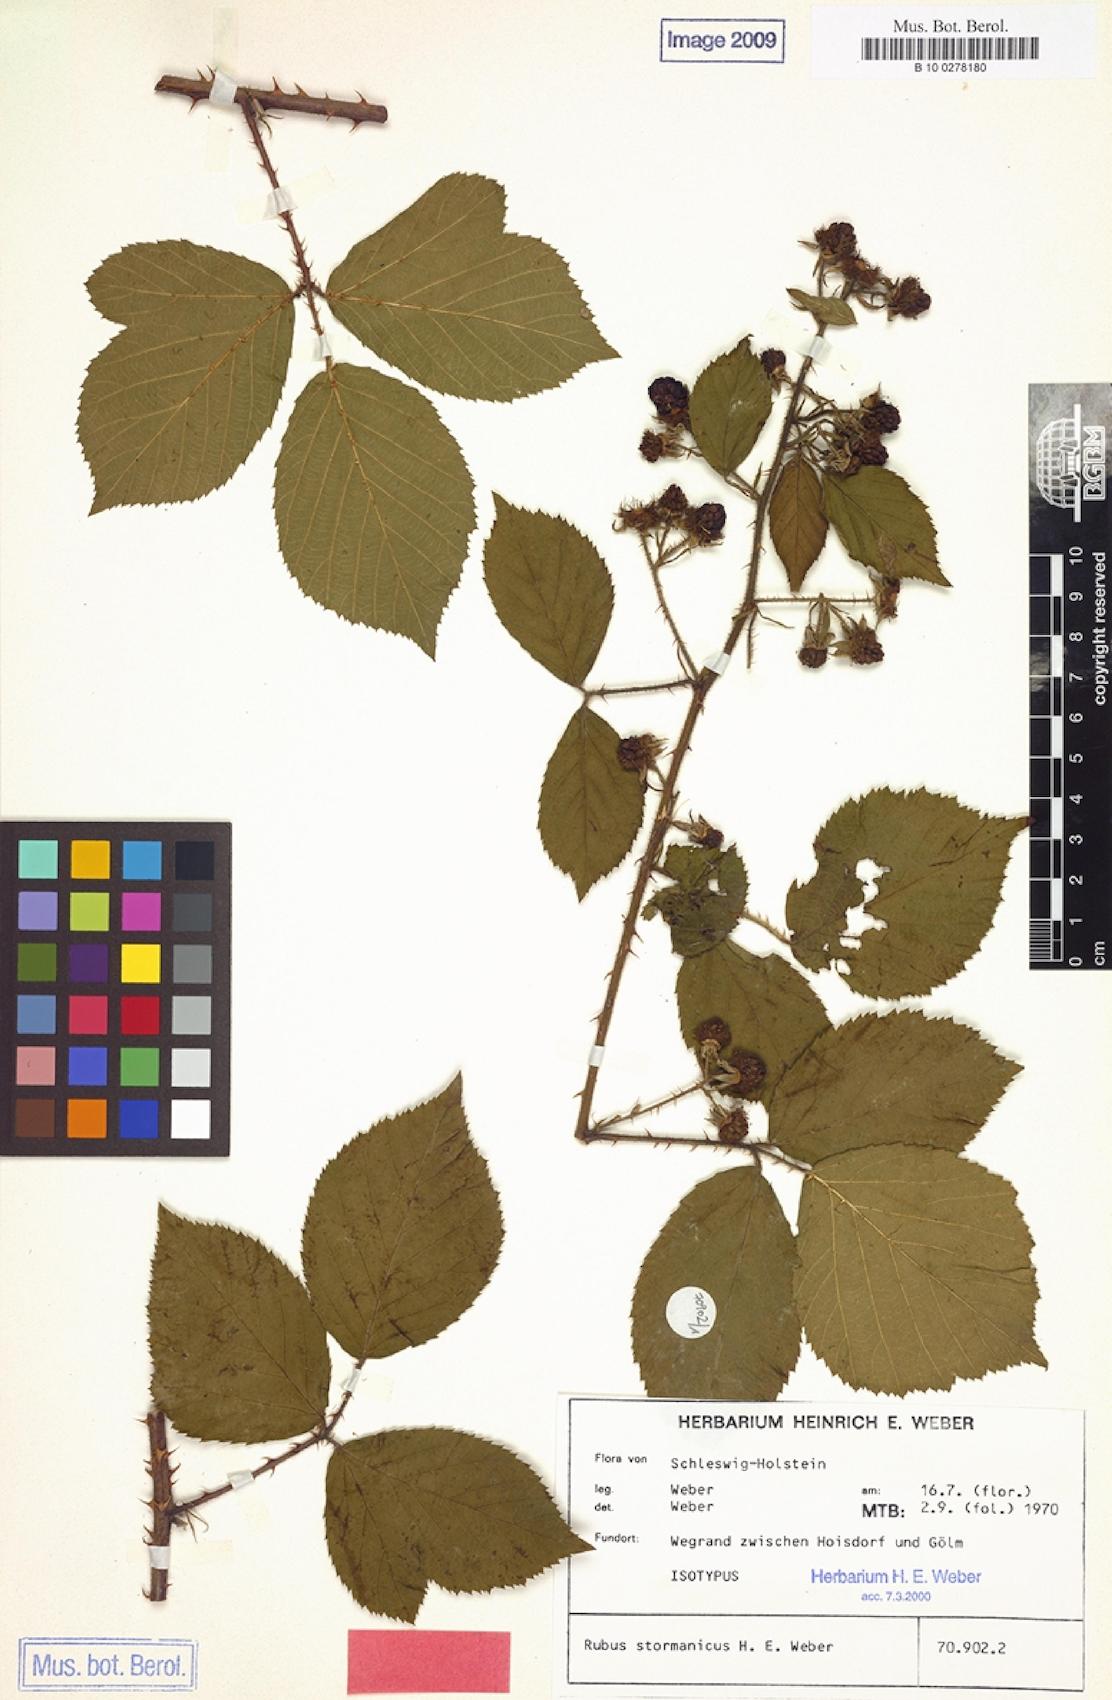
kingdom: Plantae
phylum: Tracheophyta
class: Magnoliopsida
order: Rosales
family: Rosaceae
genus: Rubus
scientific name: Rubus stormanicus
